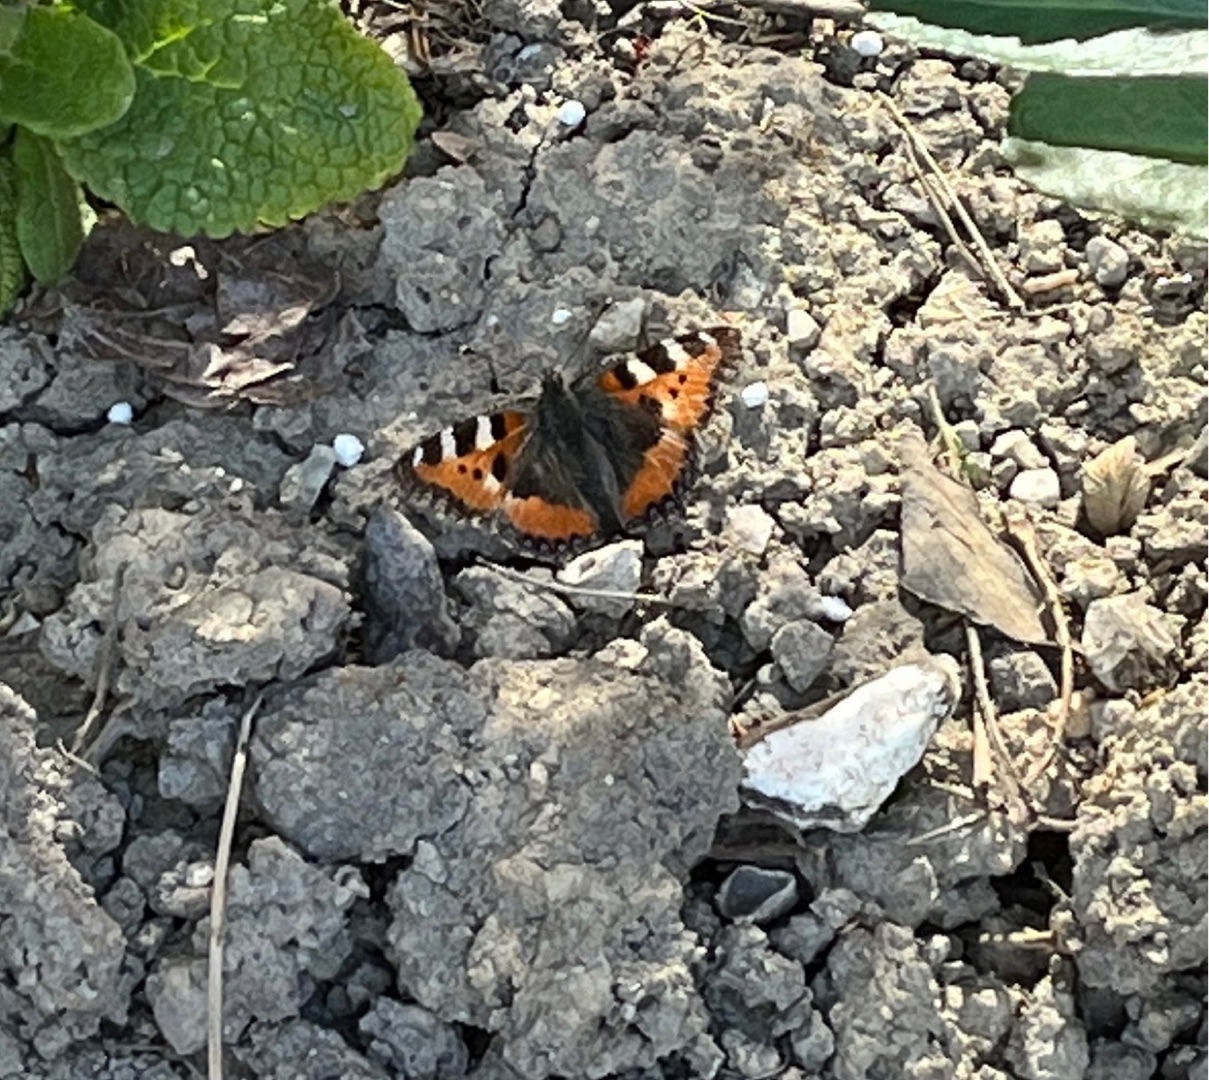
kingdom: Animalia
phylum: Arthropoda
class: Insecta
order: Lepidoptera
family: Nymphalidae
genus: Aglais
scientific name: Aglais urticae
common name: Nældens takvinge
